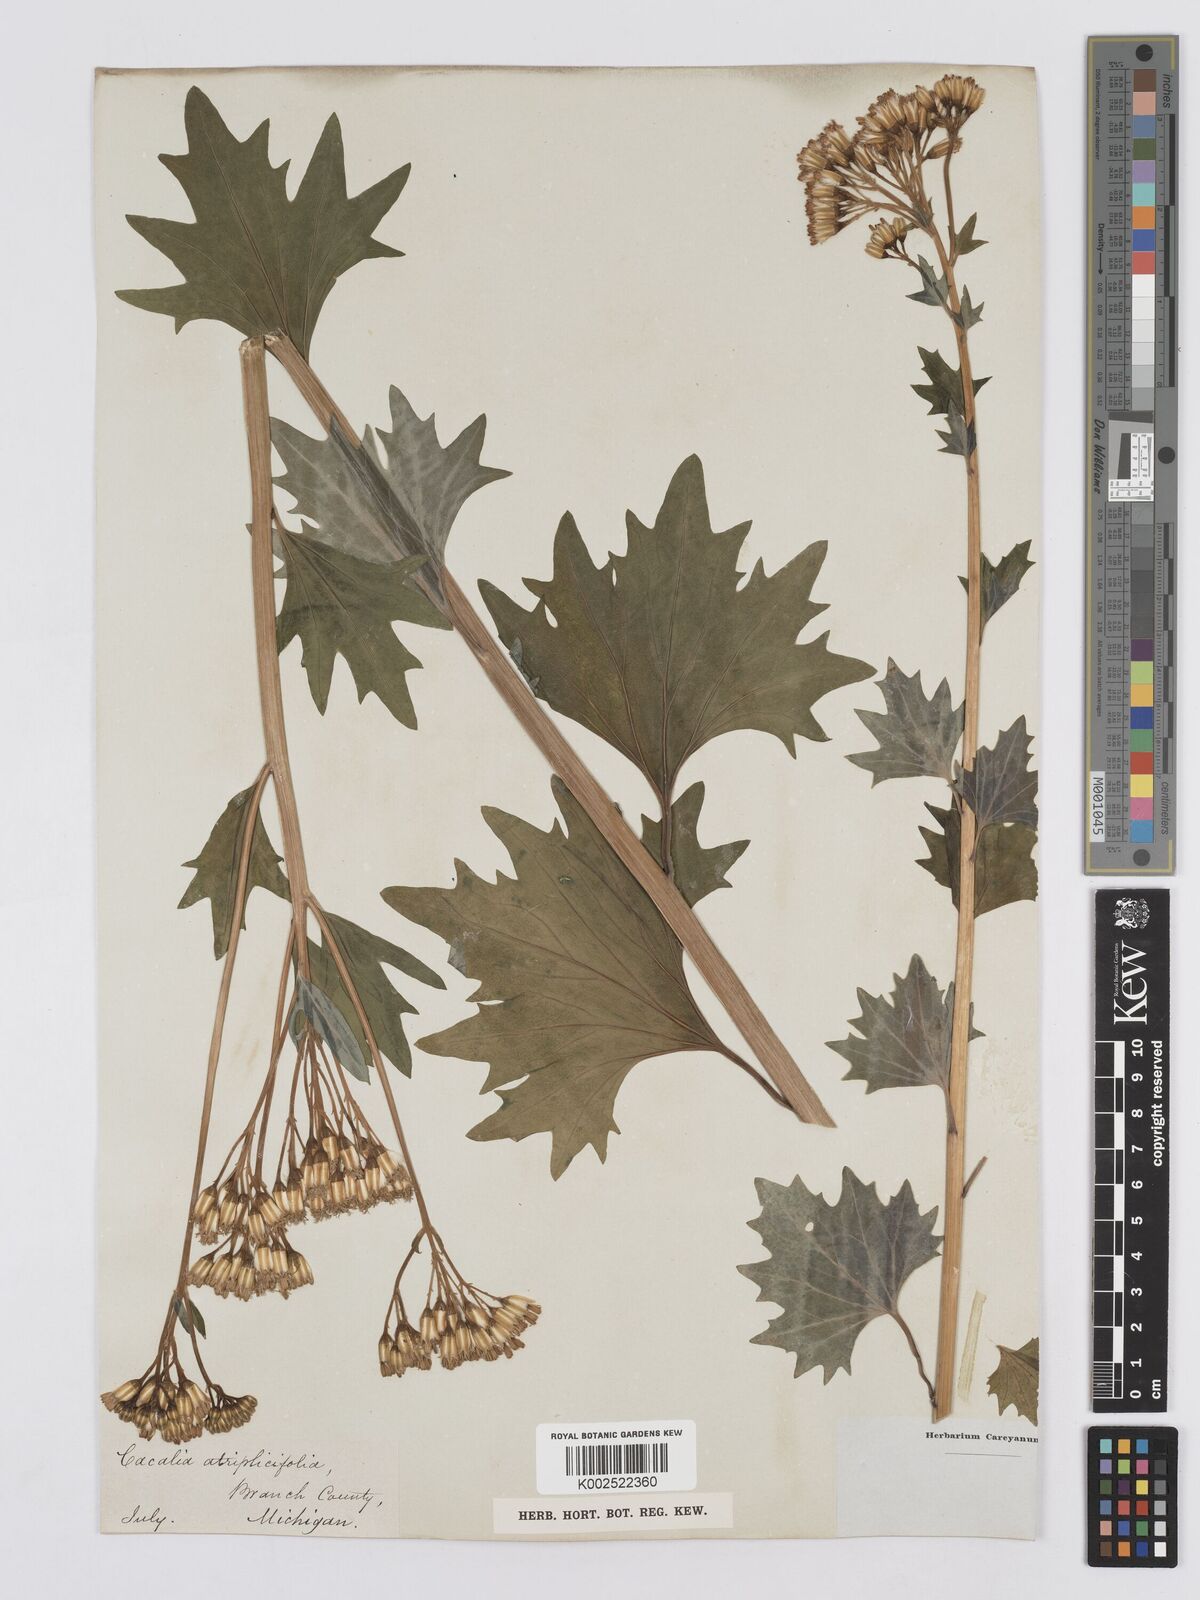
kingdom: Plantae
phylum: Tracheophyta
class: Magnoliopsida
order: Asterales
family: Asteraceae
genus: Arnoglossum
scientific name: Arnoglossum atriplicifolium
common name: Pale indian-plantain
